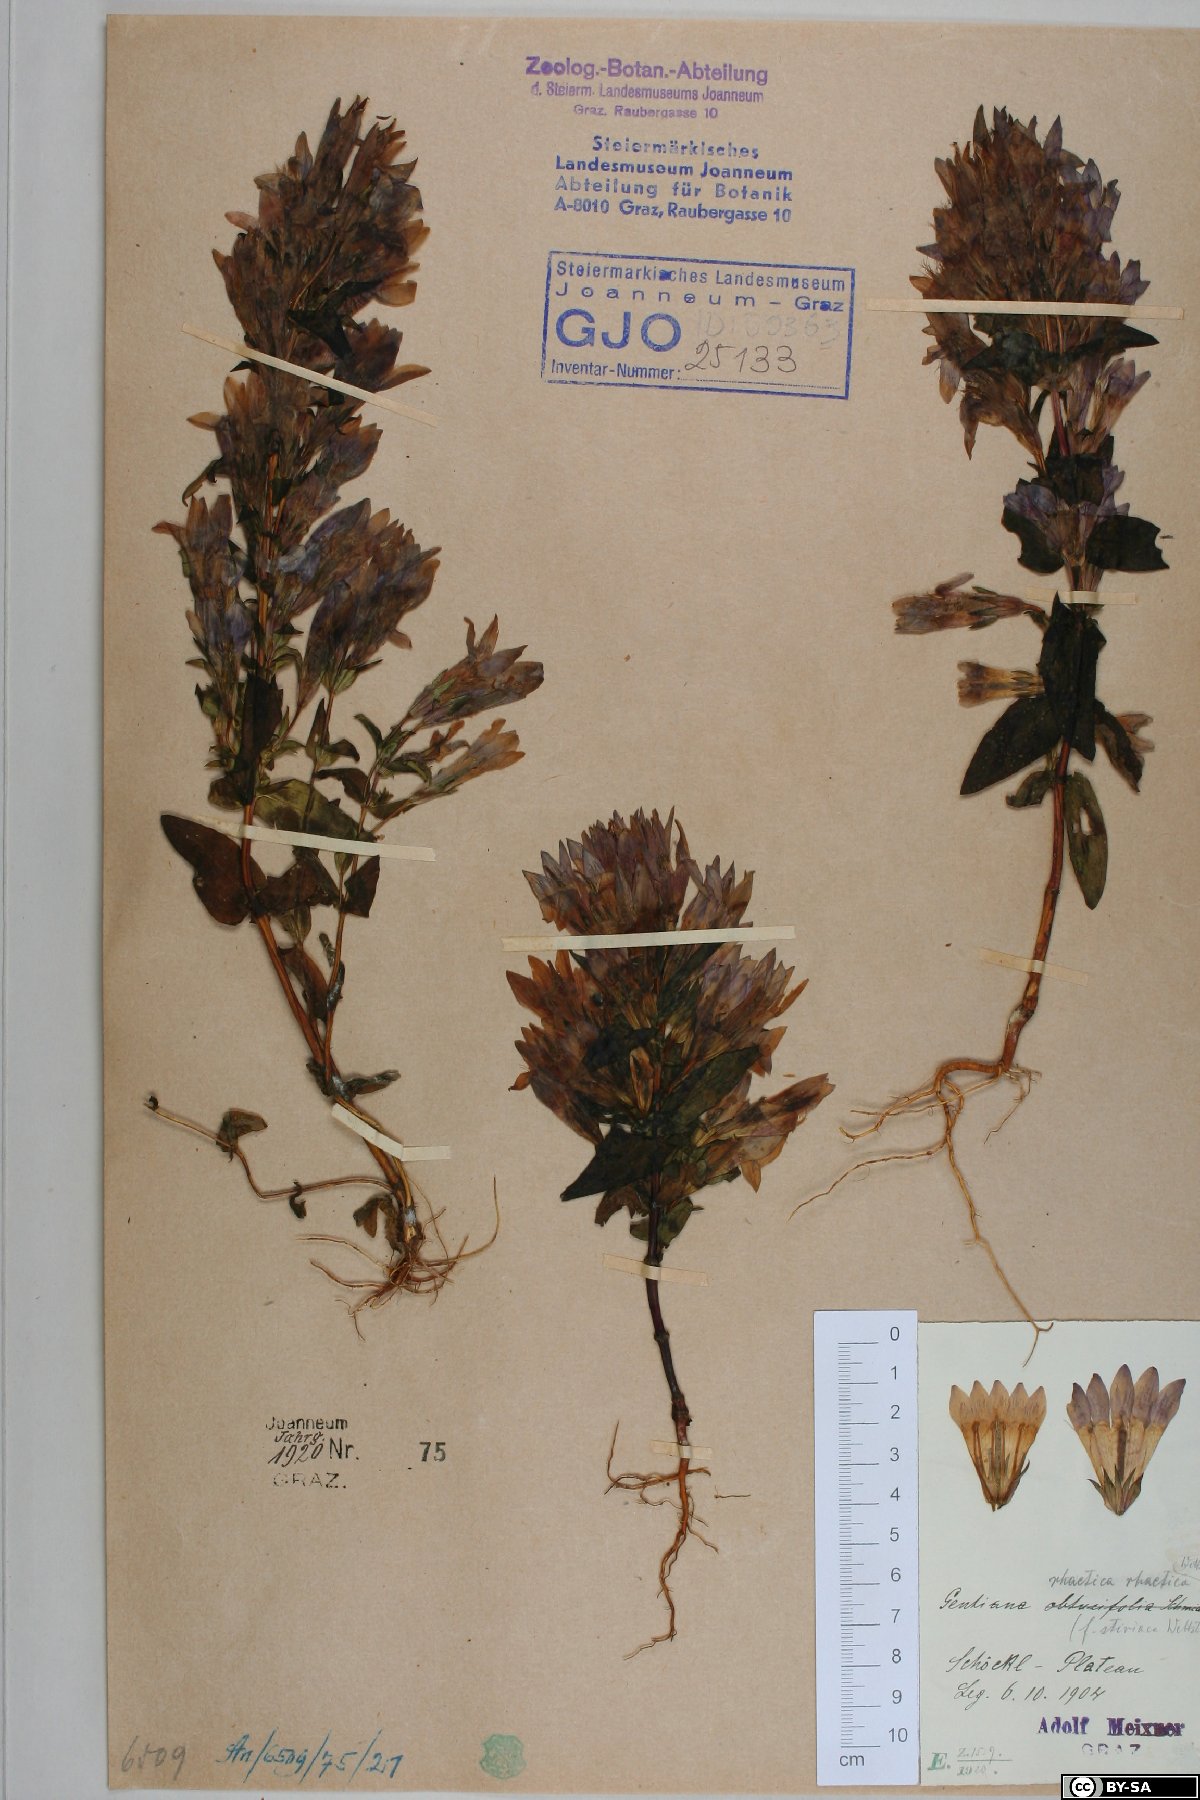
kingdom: Plantae
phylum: Tracheophyta
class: Magnoliopsida
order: Gentianales
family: Gentianaceae
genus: Gentianella
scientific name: Gentianella rhaetica
